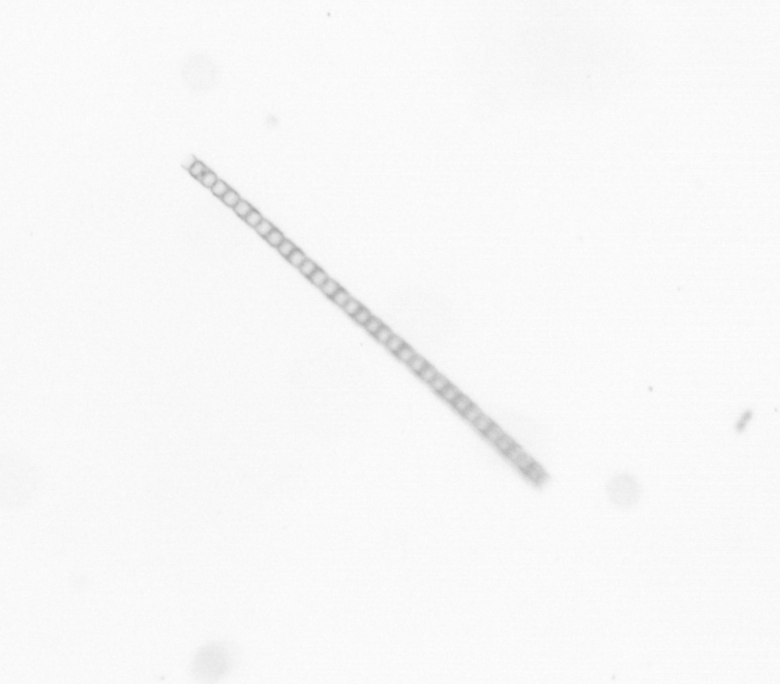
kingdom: Chromista
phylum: Ochrophyta
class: Bacillariophyceae
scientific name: Bacillariophyceae
